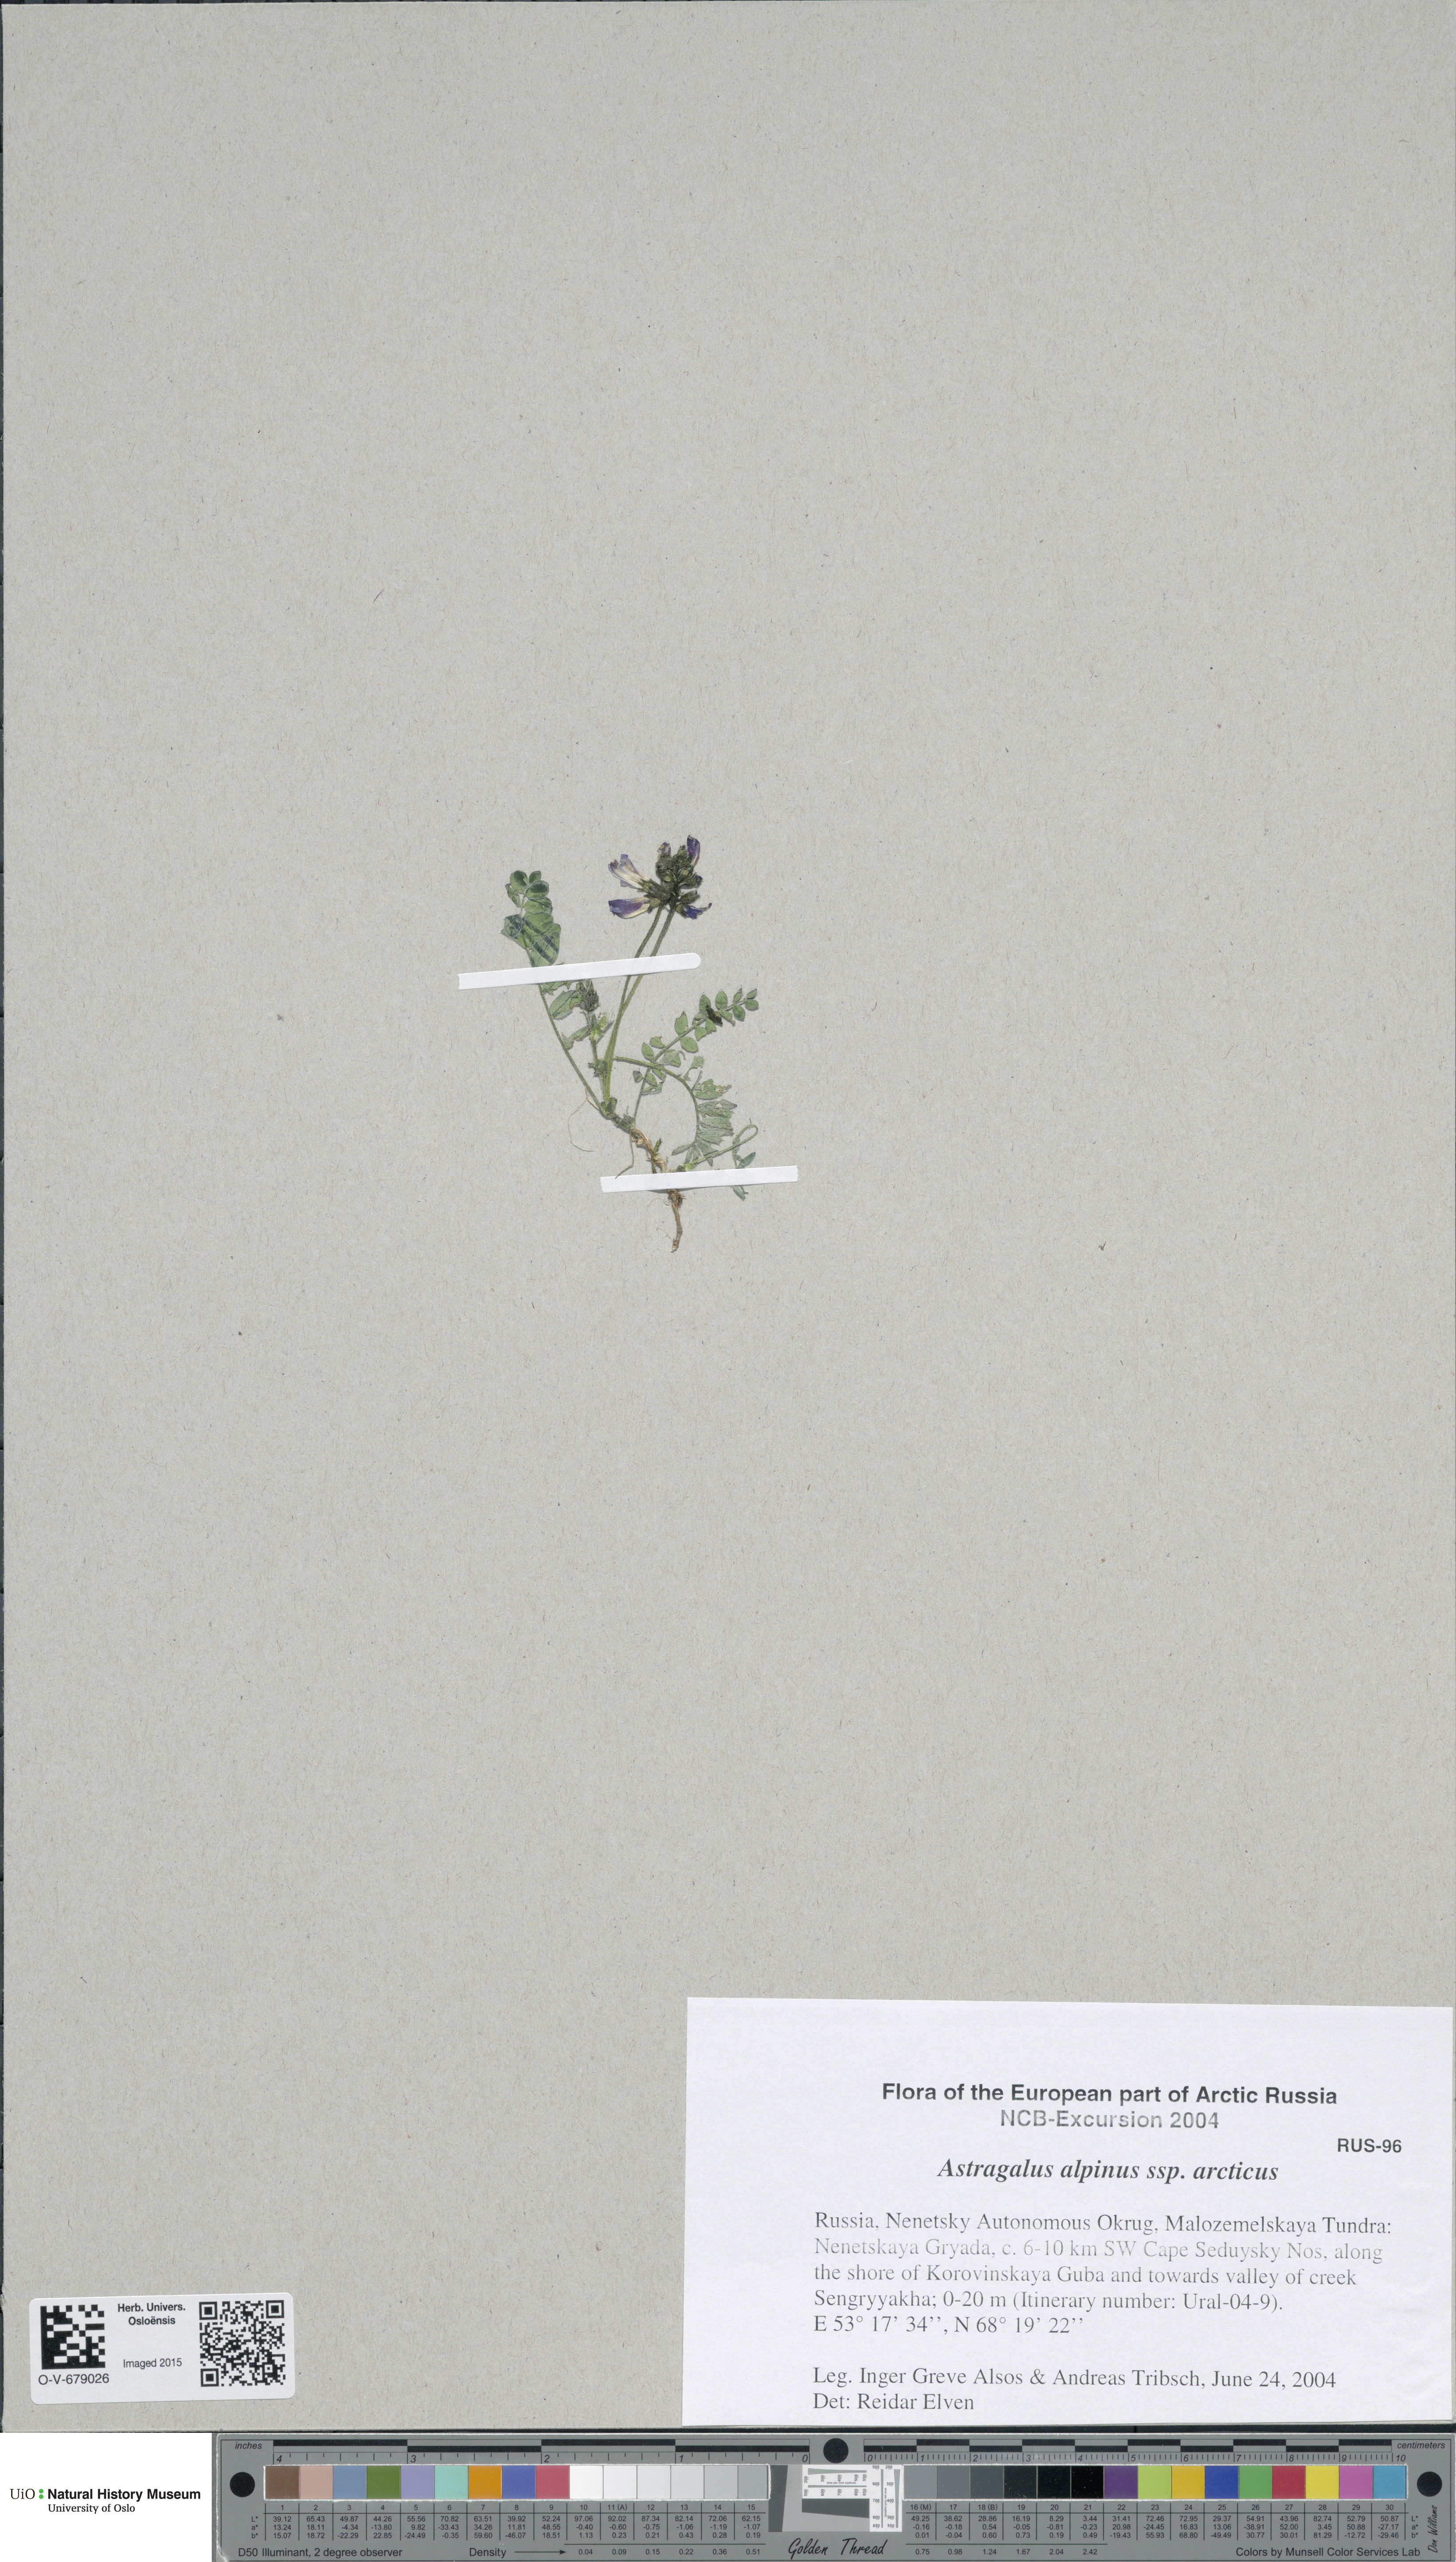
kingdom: Plantae
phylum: Tracheophyta
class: Magnoliopsida
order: Fabales
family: Fabaceae
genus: Astragalus
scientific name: Astragalus alpinus
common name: Alpine milk-vetch
